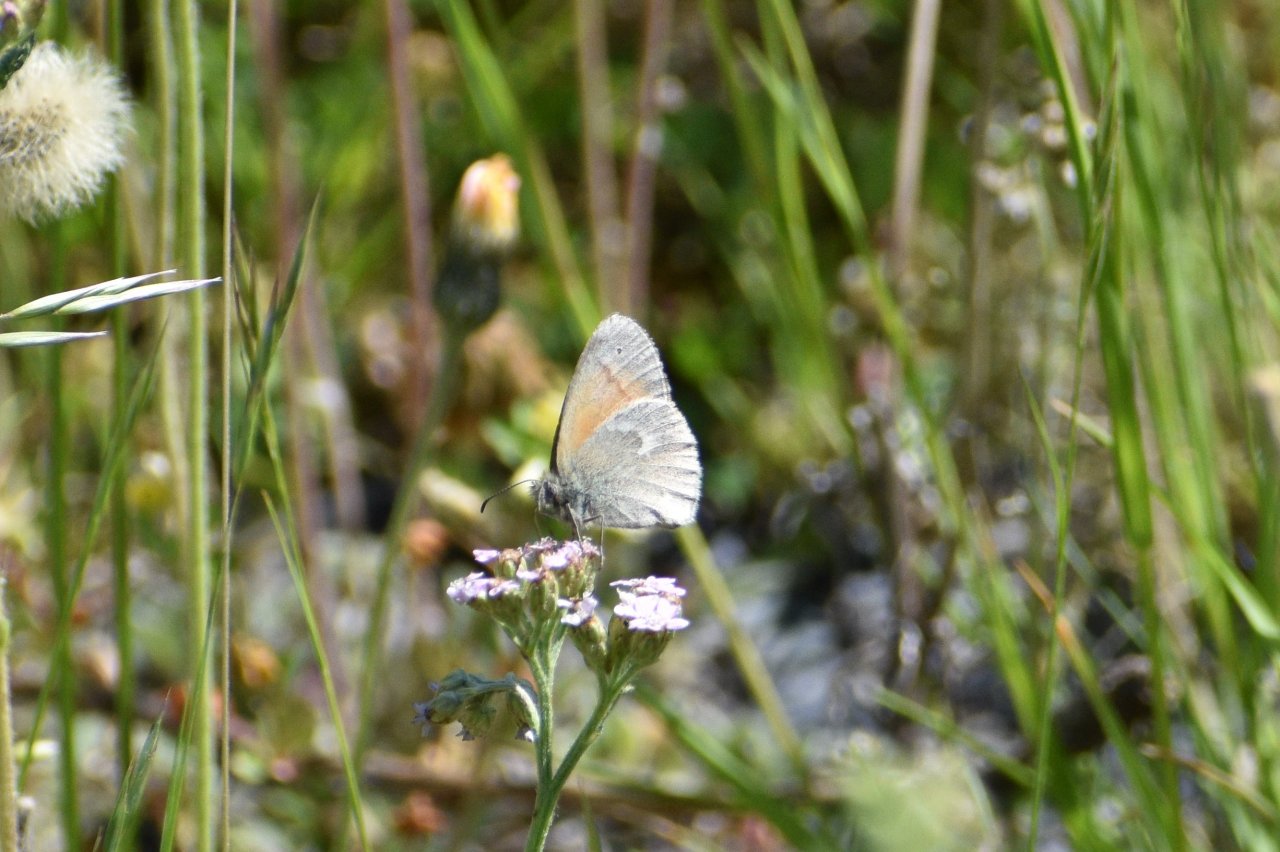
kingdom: Animalia
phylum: Arthropoda
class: Insecta
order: Lepidoptera
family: Nymphalidae
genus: Coenonympha
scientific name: Coenonympha tullia
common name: Large Heath
